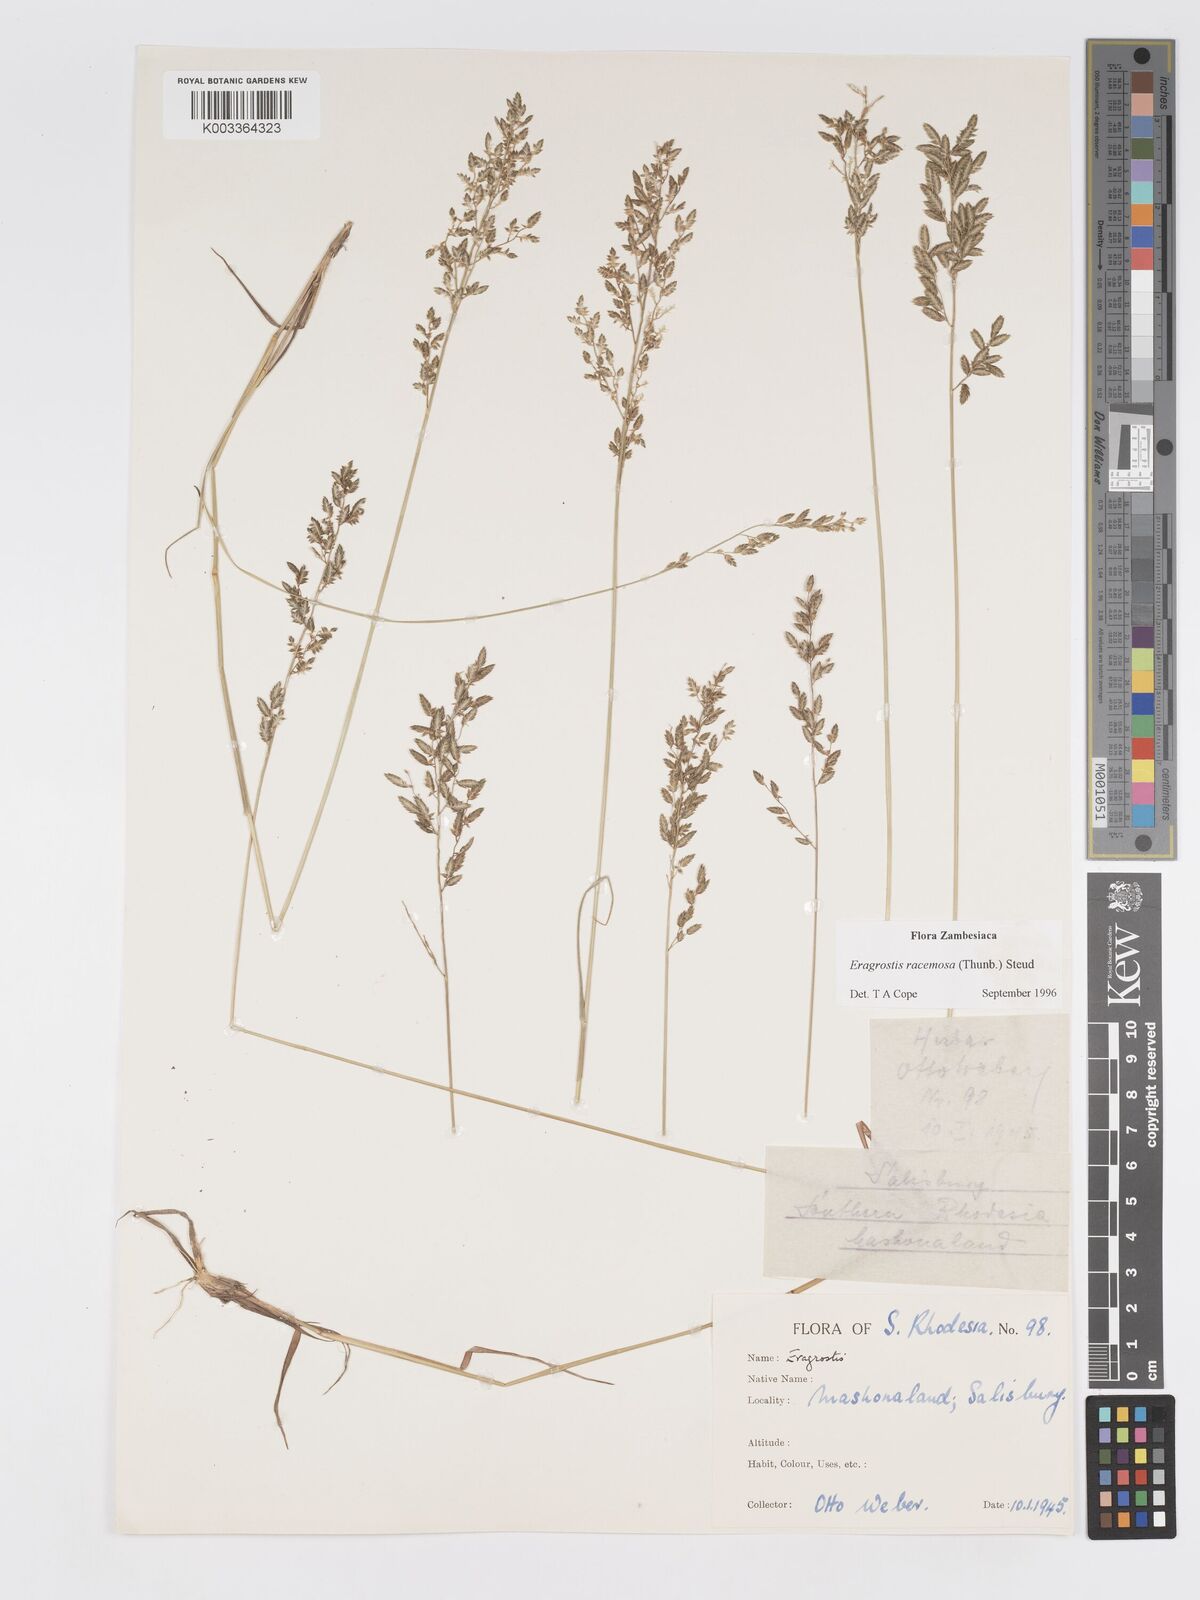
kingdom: Plantae
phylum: Tracheophyta
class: Liliopsida
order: Poales
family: Poaceae
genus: Eragrostis
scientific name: Eragrostis racemosa
